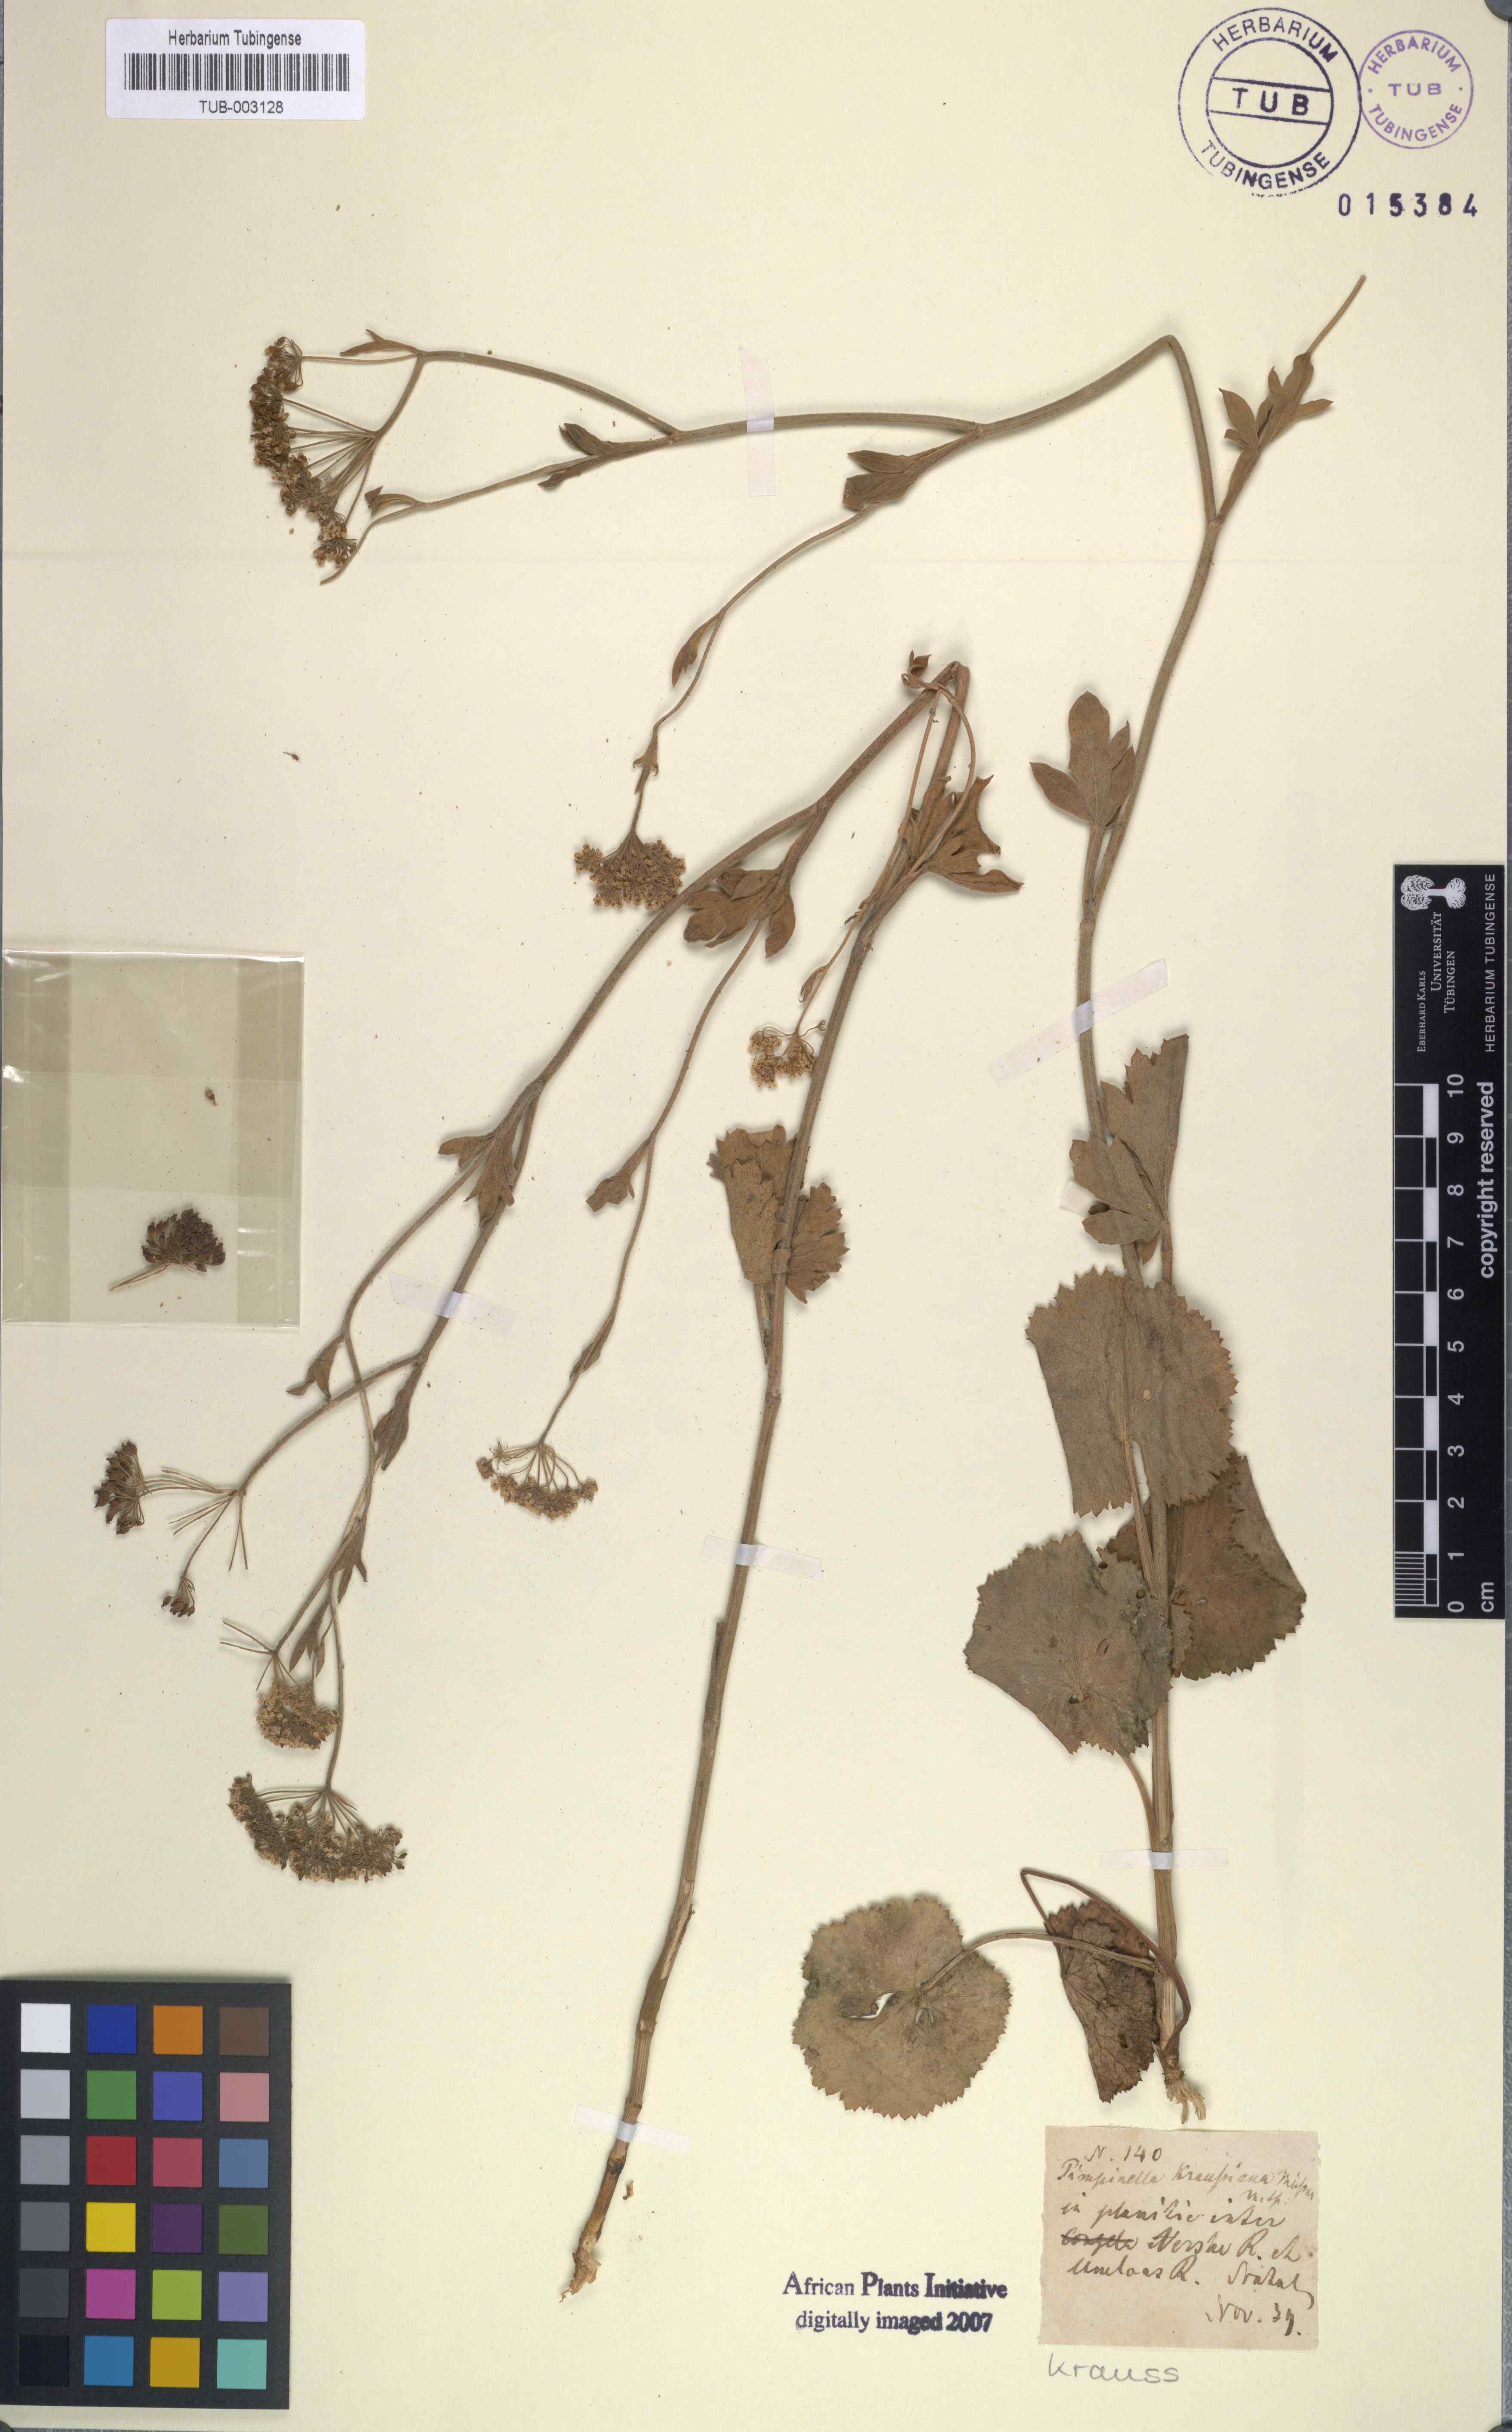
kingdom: Plantae
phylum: Tracheophyta
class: Magnoliopsida
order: Apiales
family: Apiaceae
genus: Pimpinella
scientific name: Pimpinella caffra
